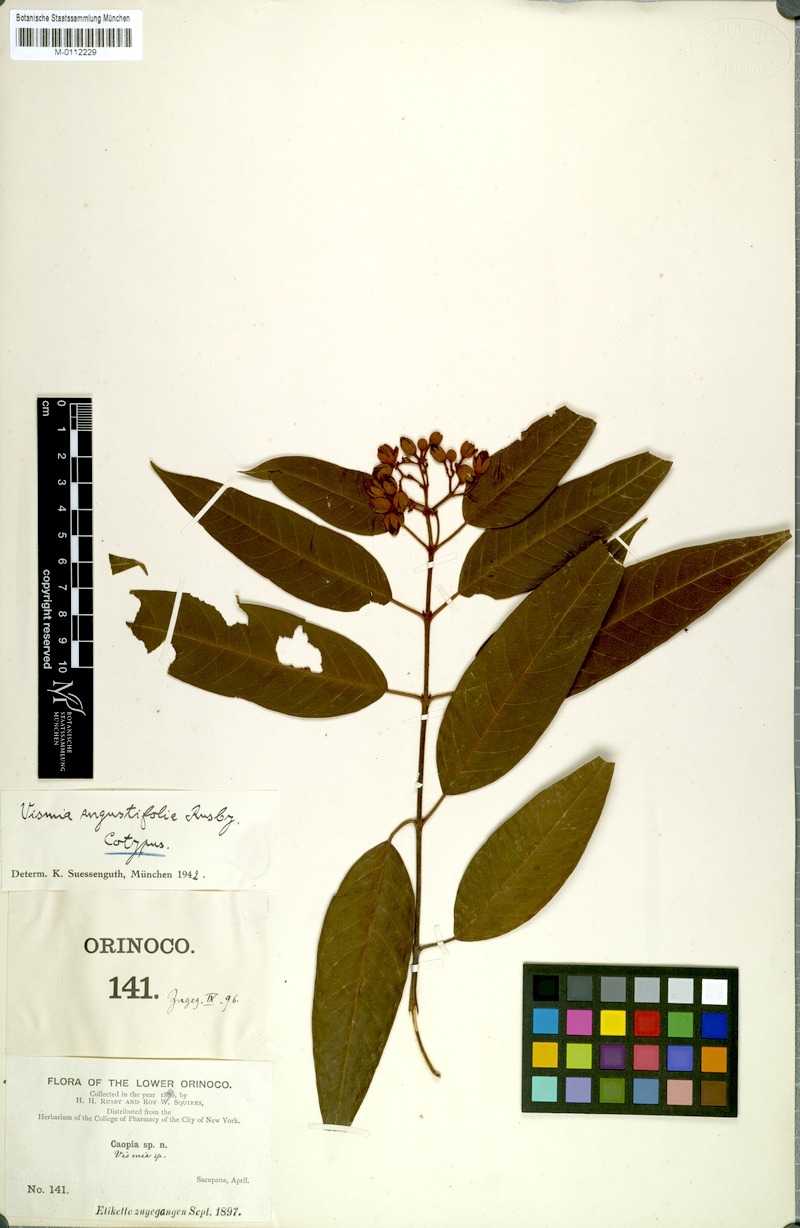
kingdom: Plantae
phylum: Tracheophyta
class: Magnoliopsida
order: Malpighiales
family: Hypericaceae
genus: Vismia
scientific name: Vismia laxiflora
